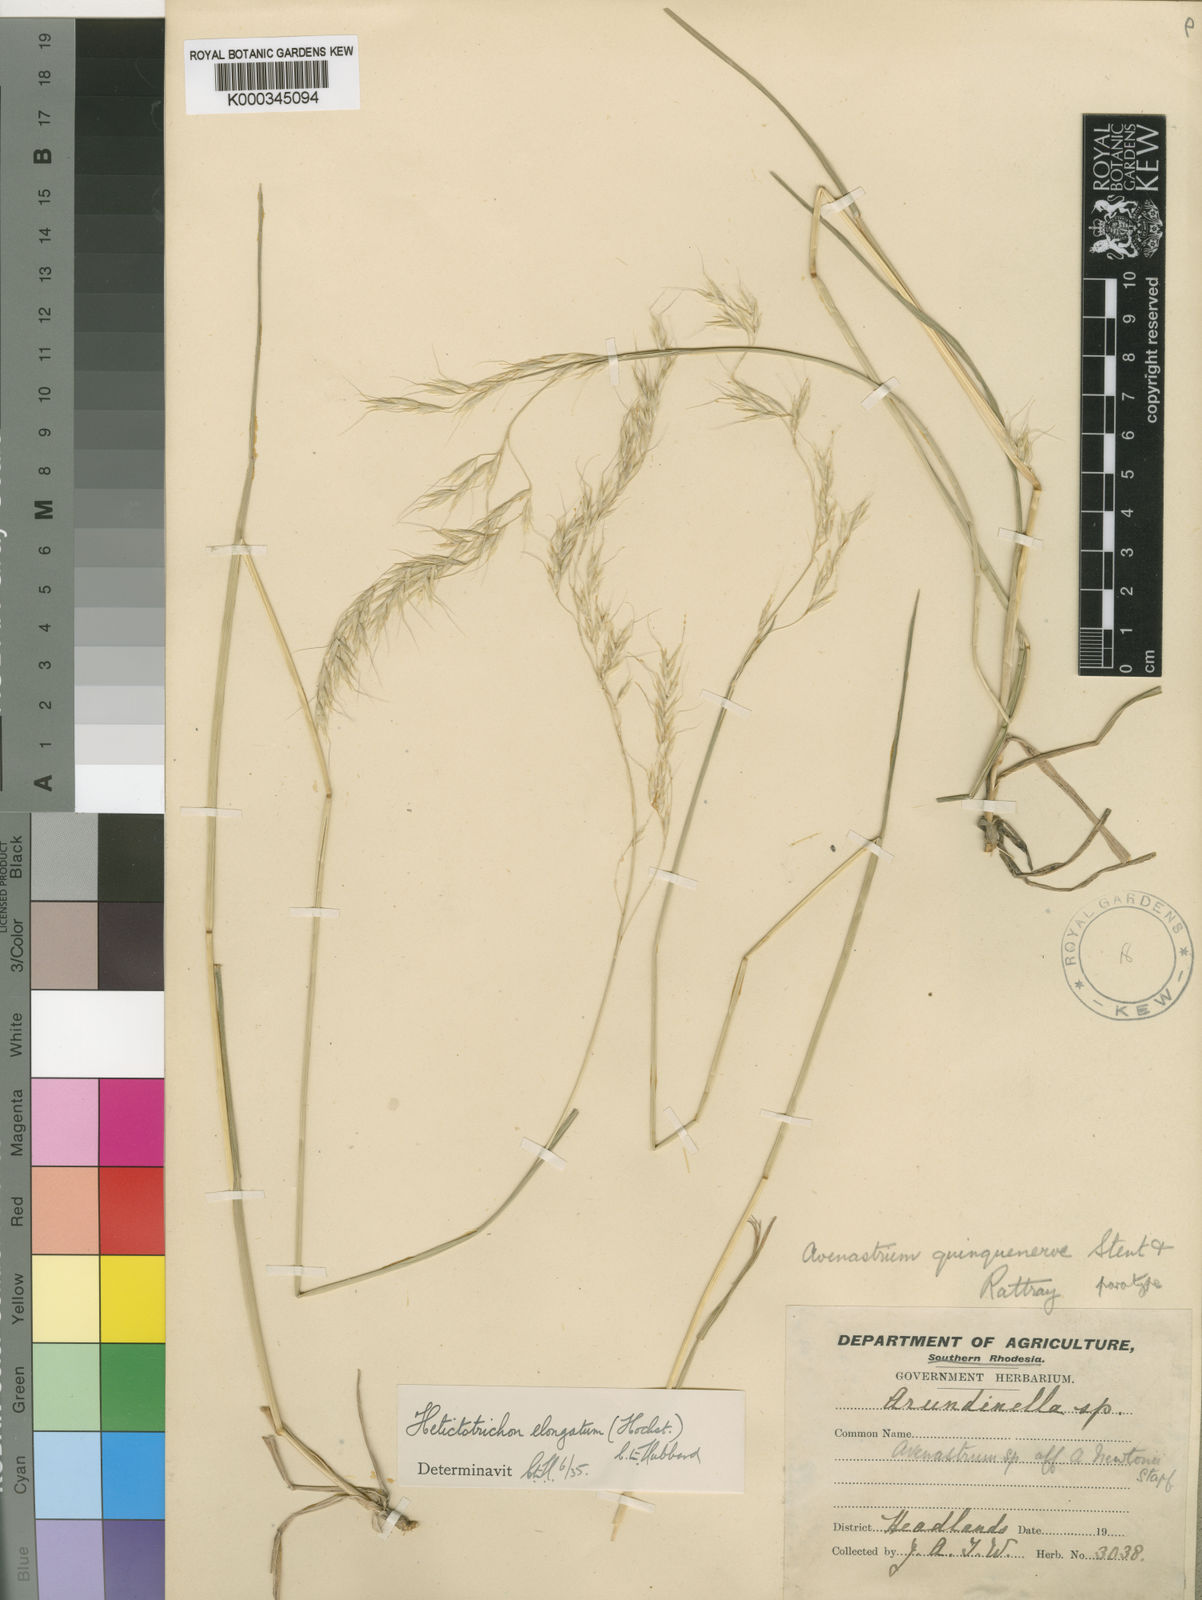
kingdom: Plantae
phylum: Tracheophyta
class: Liliopsida
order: Poales
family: Poaceae
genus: Trisetopsis
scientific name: Trisetopsis elongata
